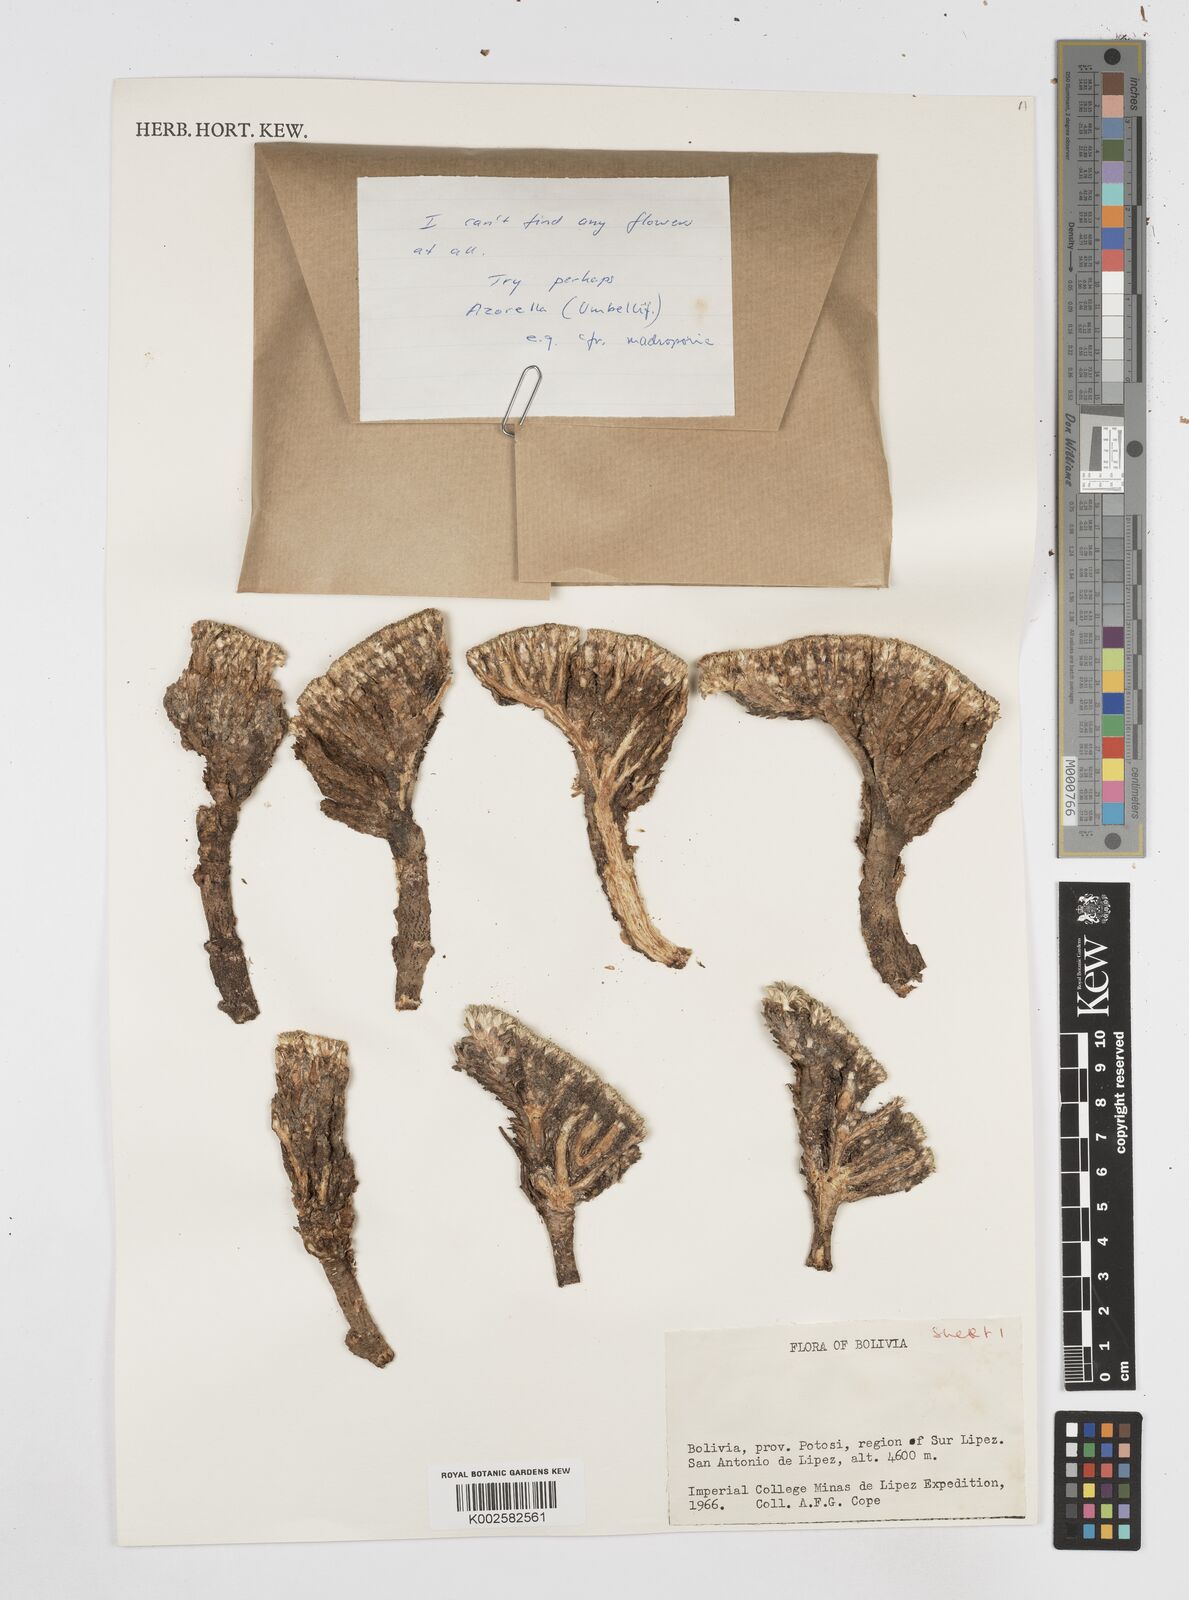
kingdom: Plantae
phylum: Tracheophyta
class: Magnoliopsida
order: Apiales
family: Apiaceae
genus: Azorella
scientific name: Azorella
